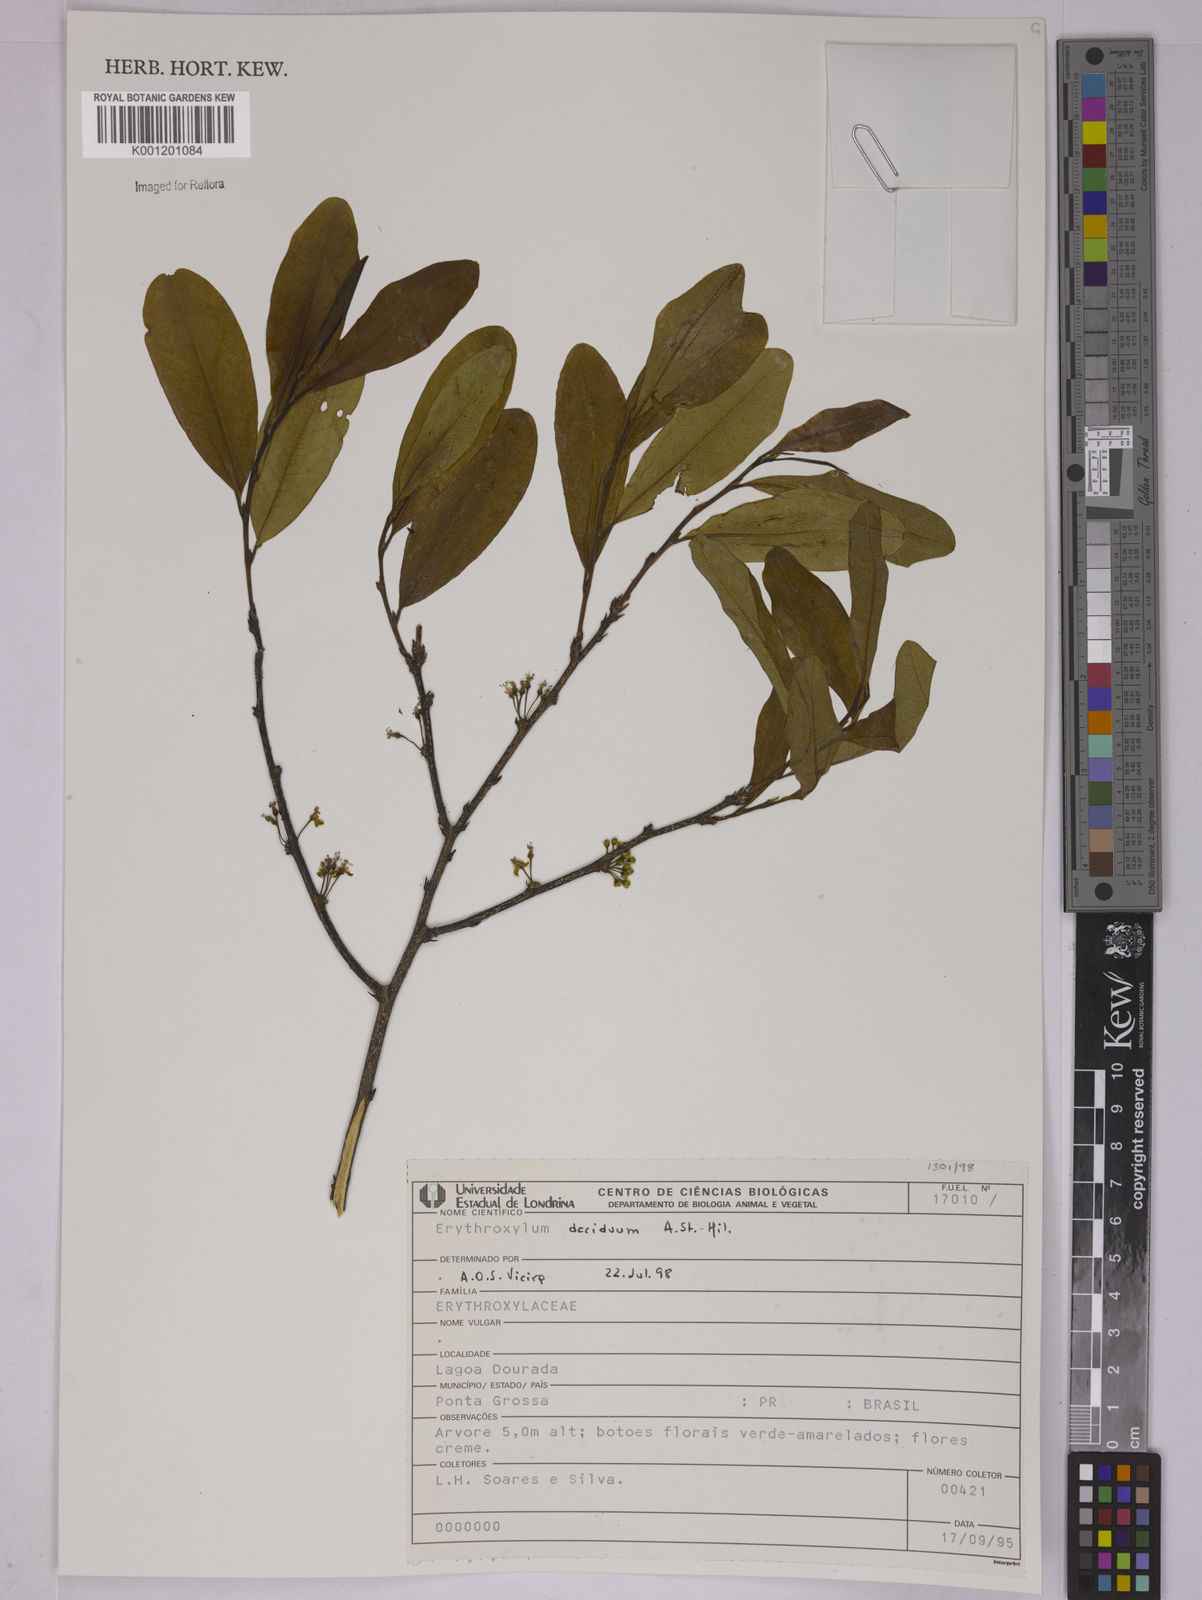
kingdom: Plantae
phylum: Tracheophyta
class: Magnoliopsida
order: Malpighiales
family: Erythroxylaceae
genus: Erythroxylum
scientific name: Erythroxylum deciduum
